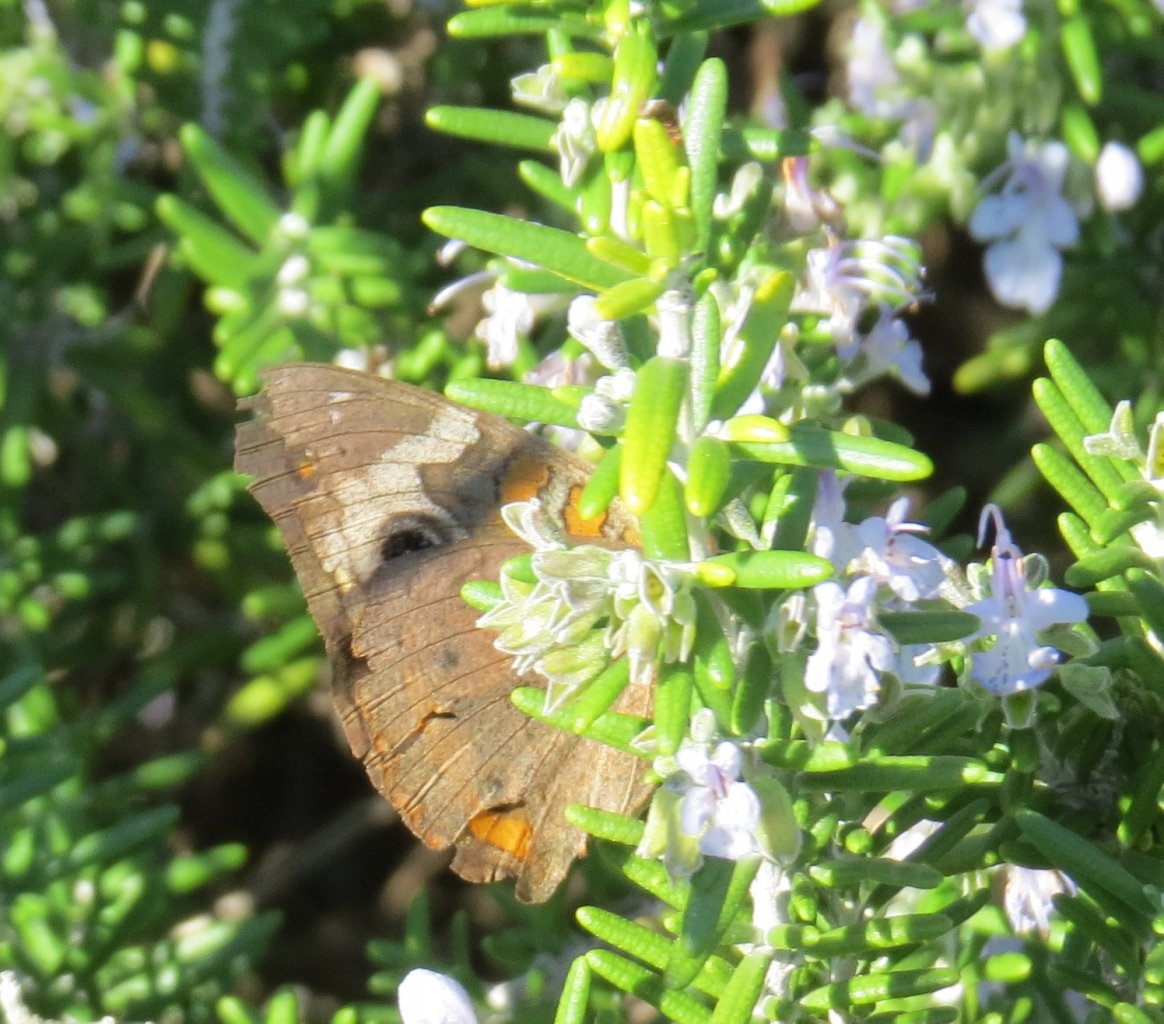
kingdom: Animalia
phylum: Arthropoda
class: Insecta
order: Lepidoptera
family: Nymphalidae
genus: Junonia
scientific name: Junonia coenia
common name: Common Buckeye
